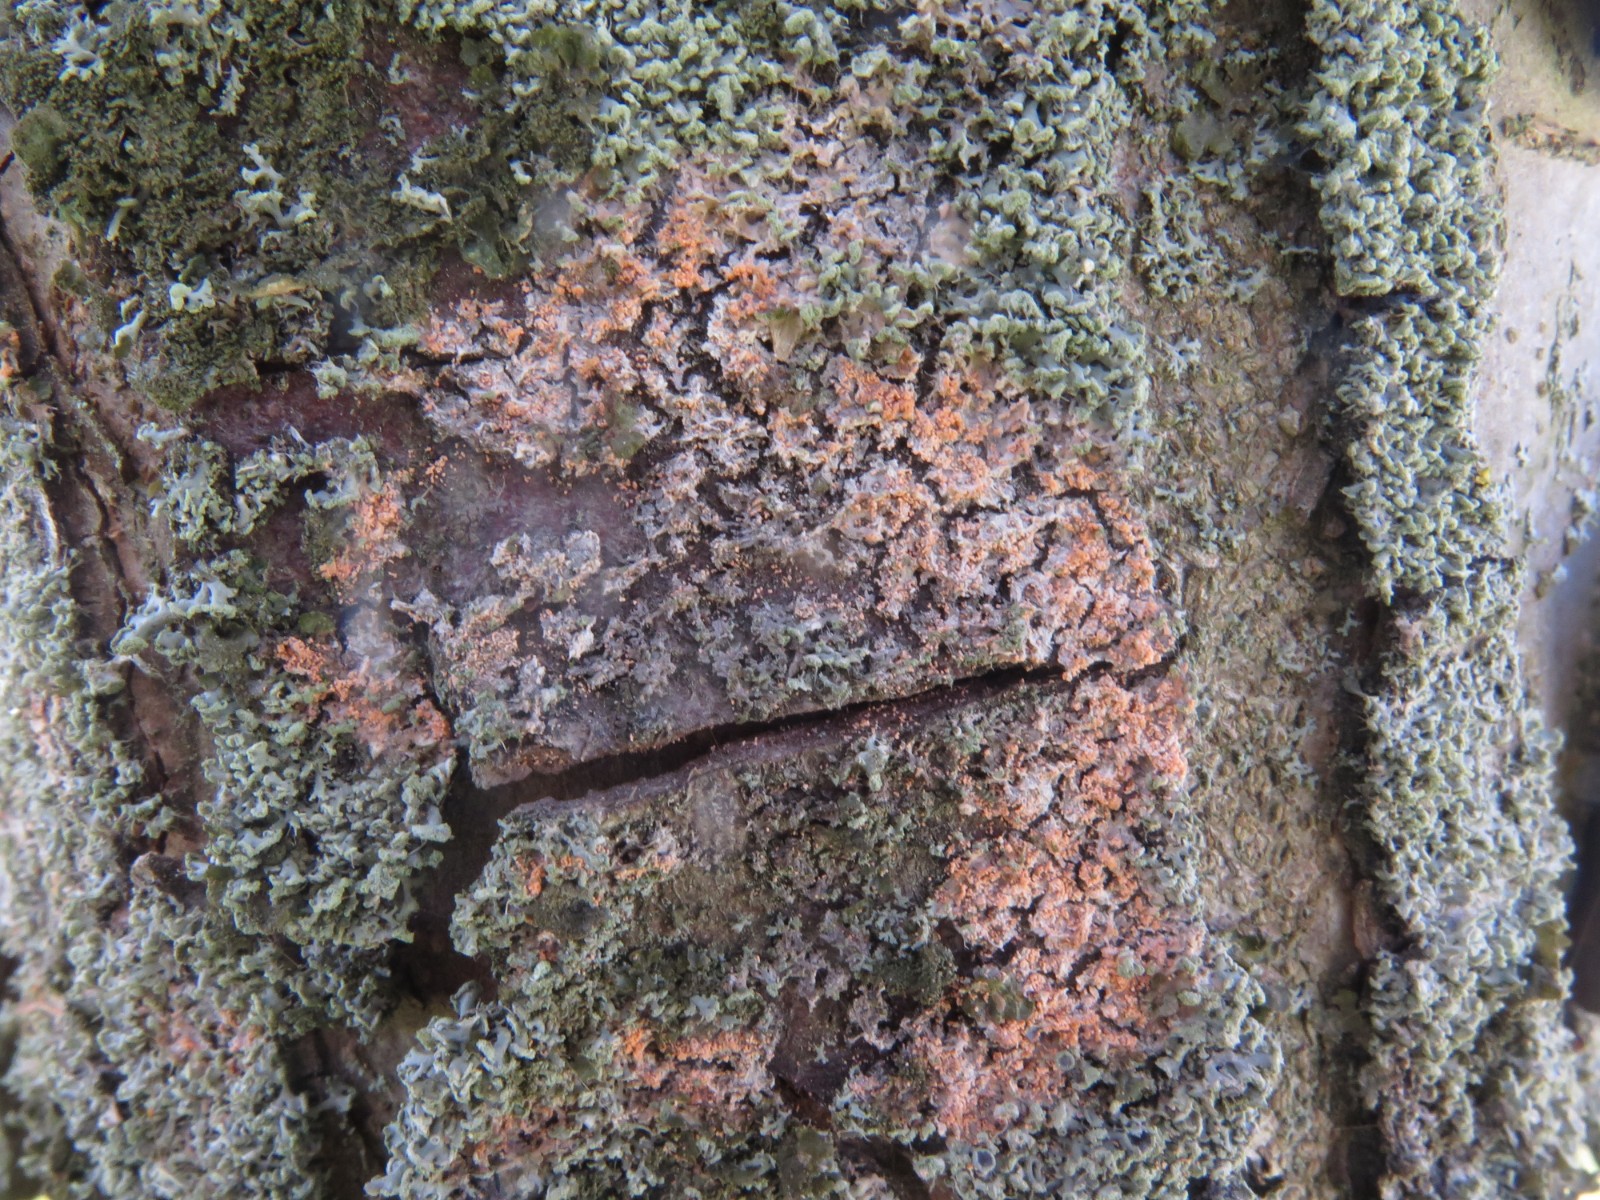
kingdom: Fungi
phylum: Basidiomycota
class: Agaricomycetes
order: Corticiales
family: Corticiaceae
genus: Erythricium
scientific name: Erythricium aurantiacum
